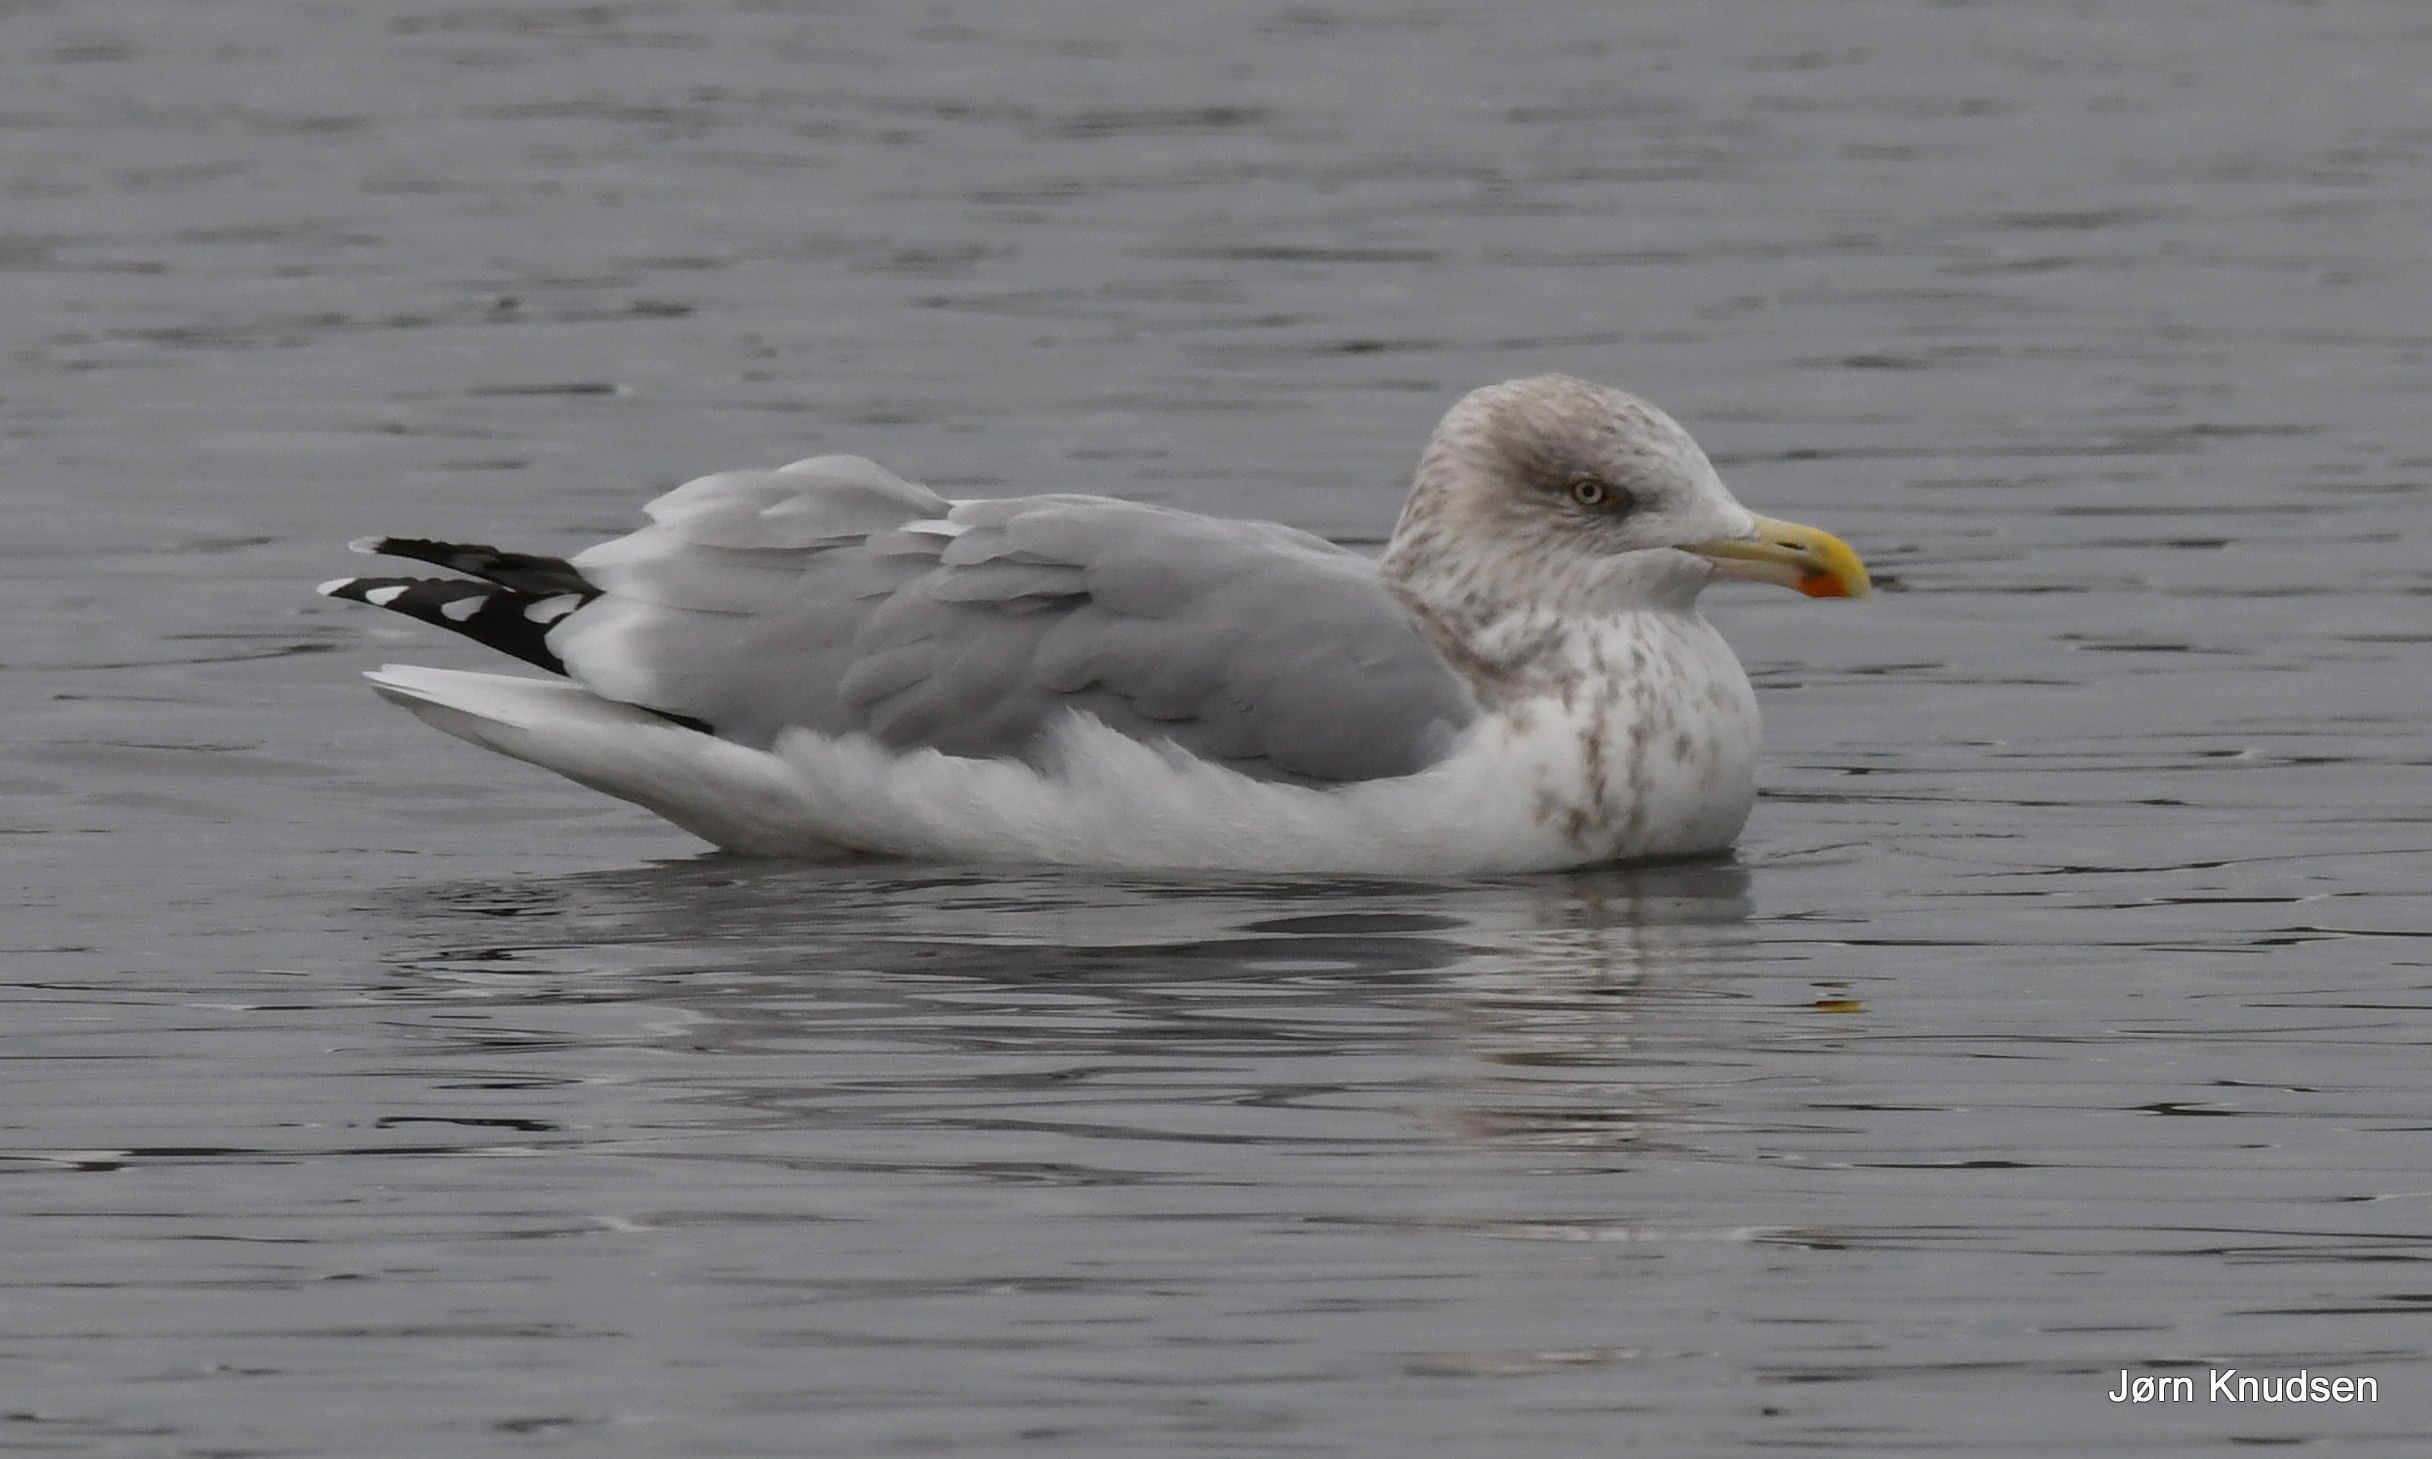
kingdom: Animalia
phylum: Chordata
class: Aves
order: Charadriiformes
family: Laridae
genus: Larus
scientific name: Larus argentatus
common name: Sølvmåge
